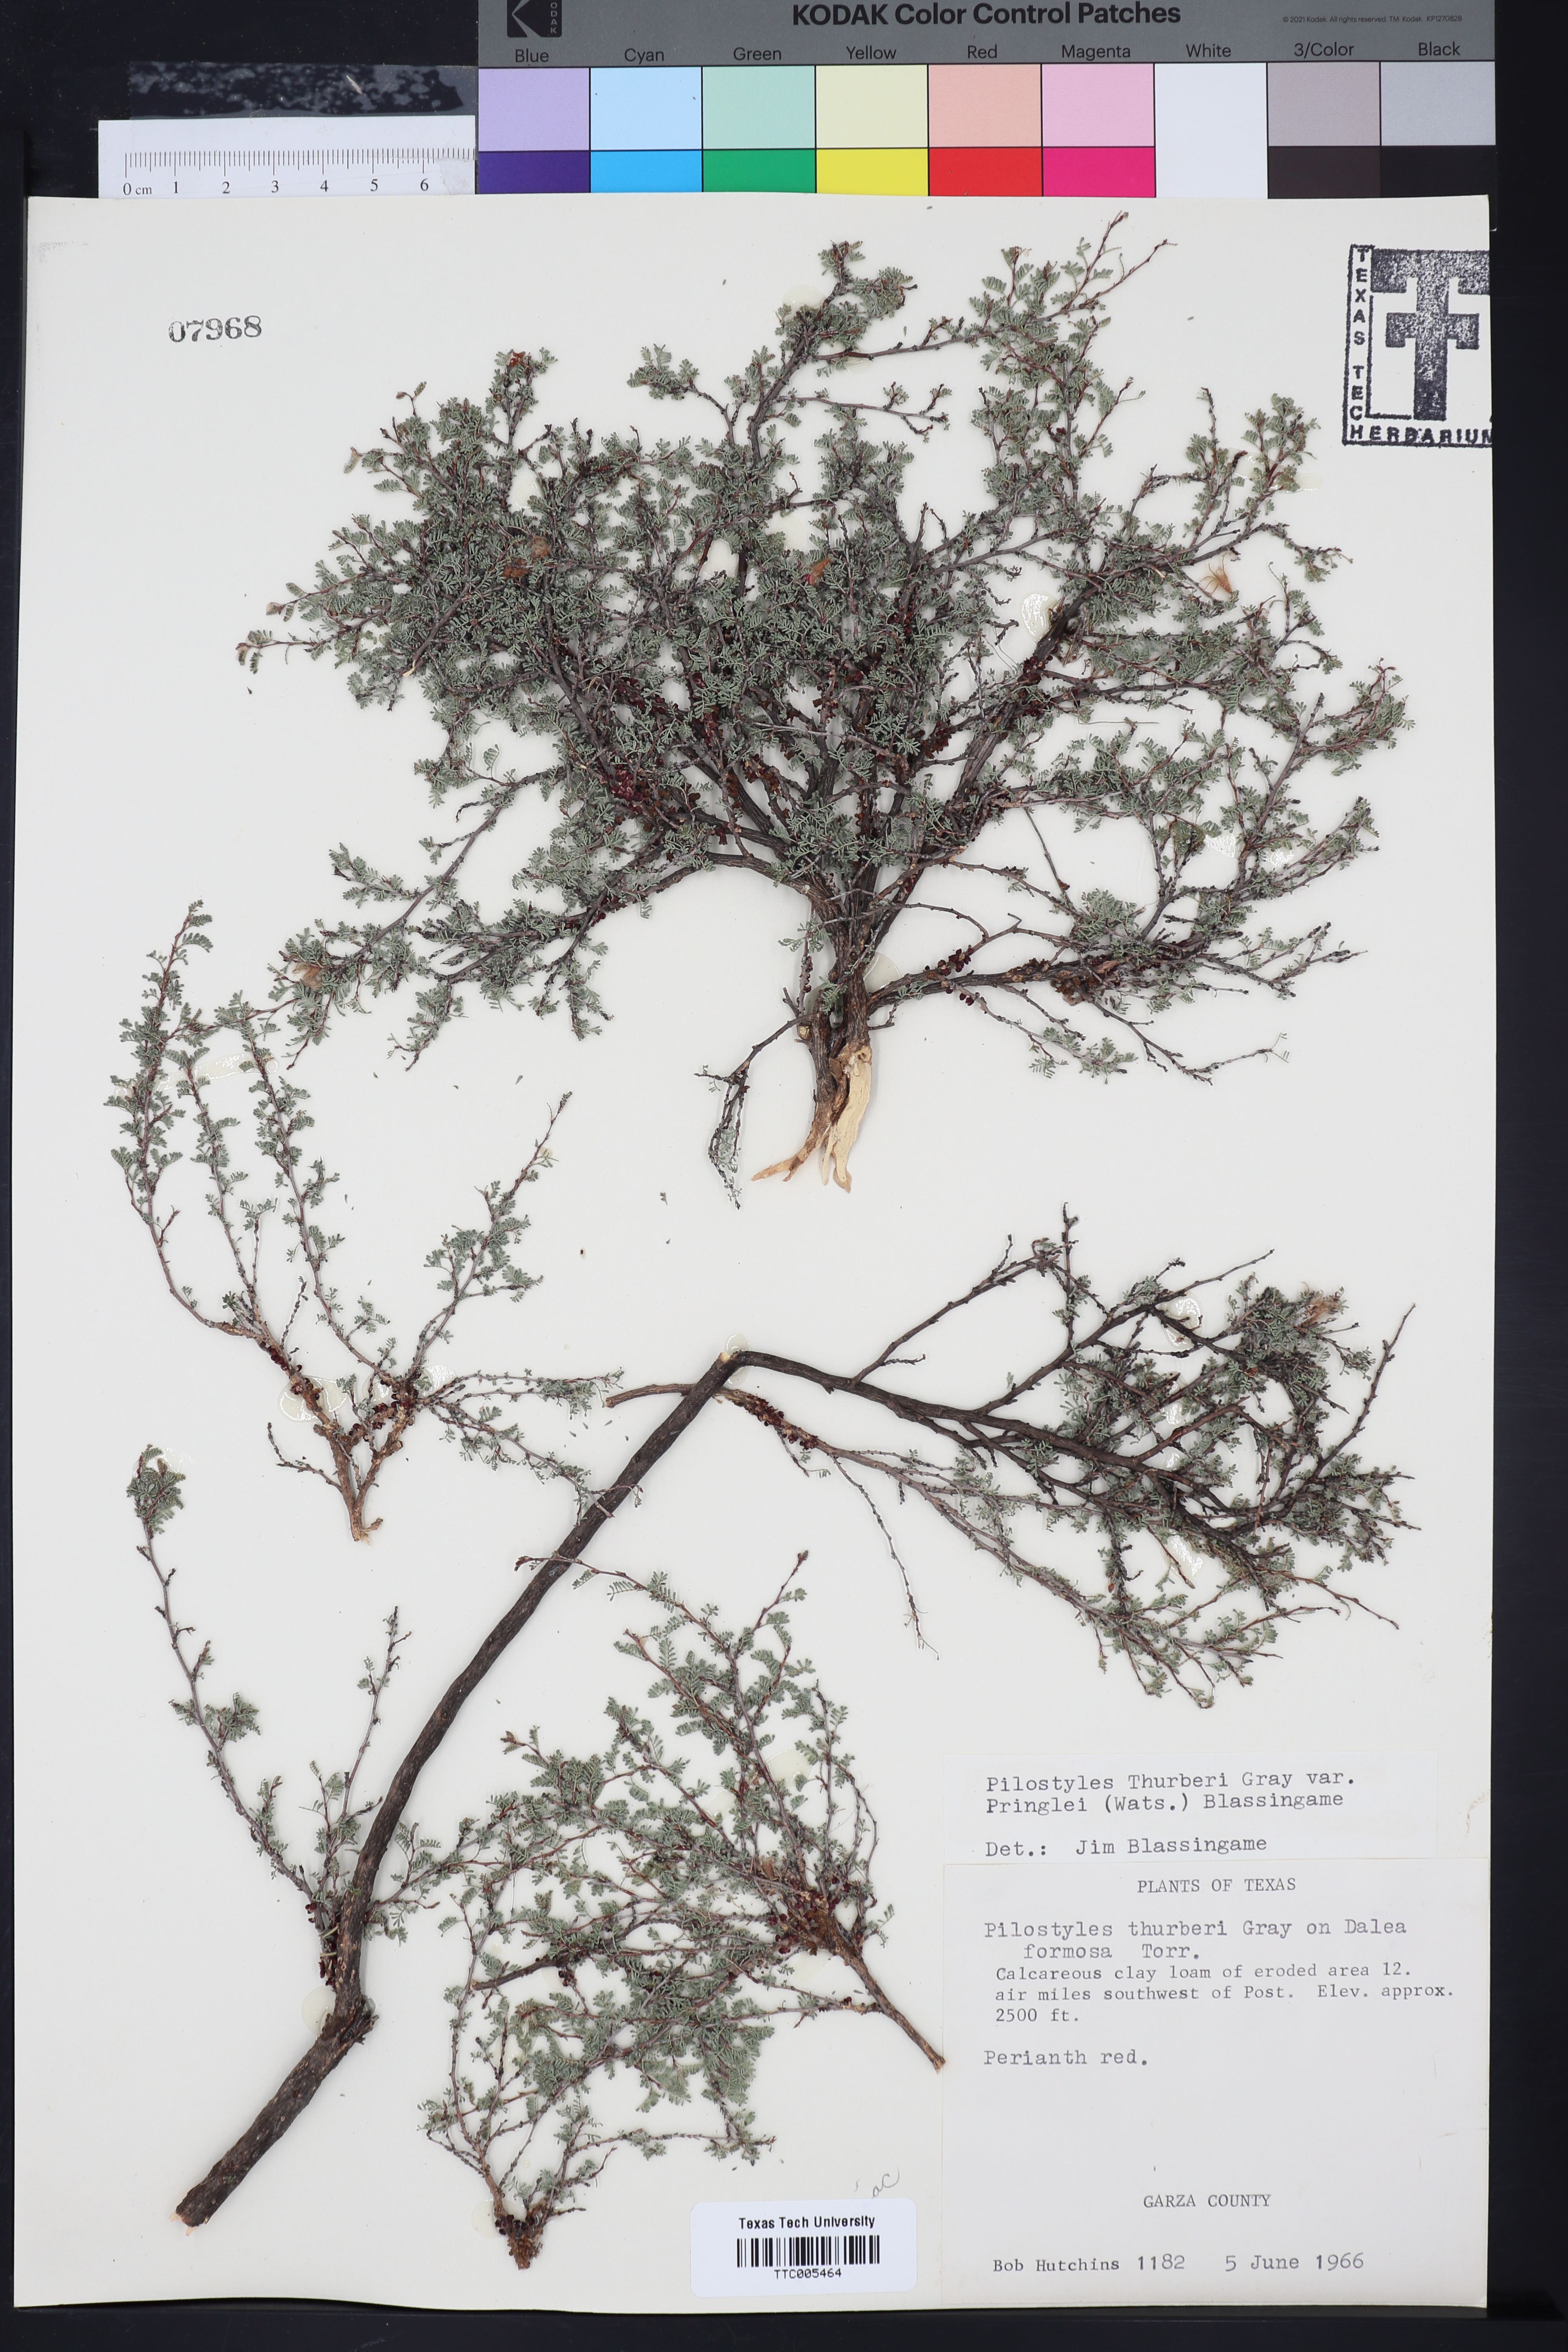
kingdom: Plantae
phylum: Tracheophyta
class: Magnoliopsida
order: Cucurbitales
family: Apodanthaceae
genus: Pilostyles
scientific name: Pilostyles thurberi
